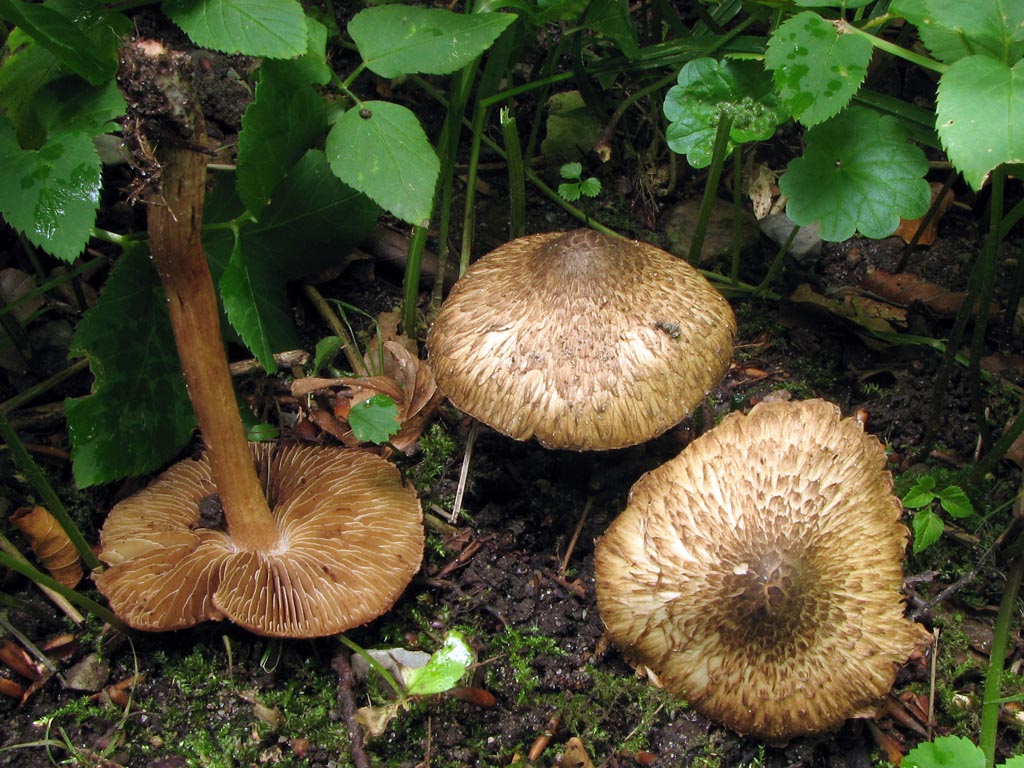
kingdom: Fungi
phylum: Basidiomycota
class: Agaricomycetes
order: Agaricales
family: Inocybaceae
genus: Inosperma
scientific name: Inosperma bongardii
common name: Bongards trævlhat
